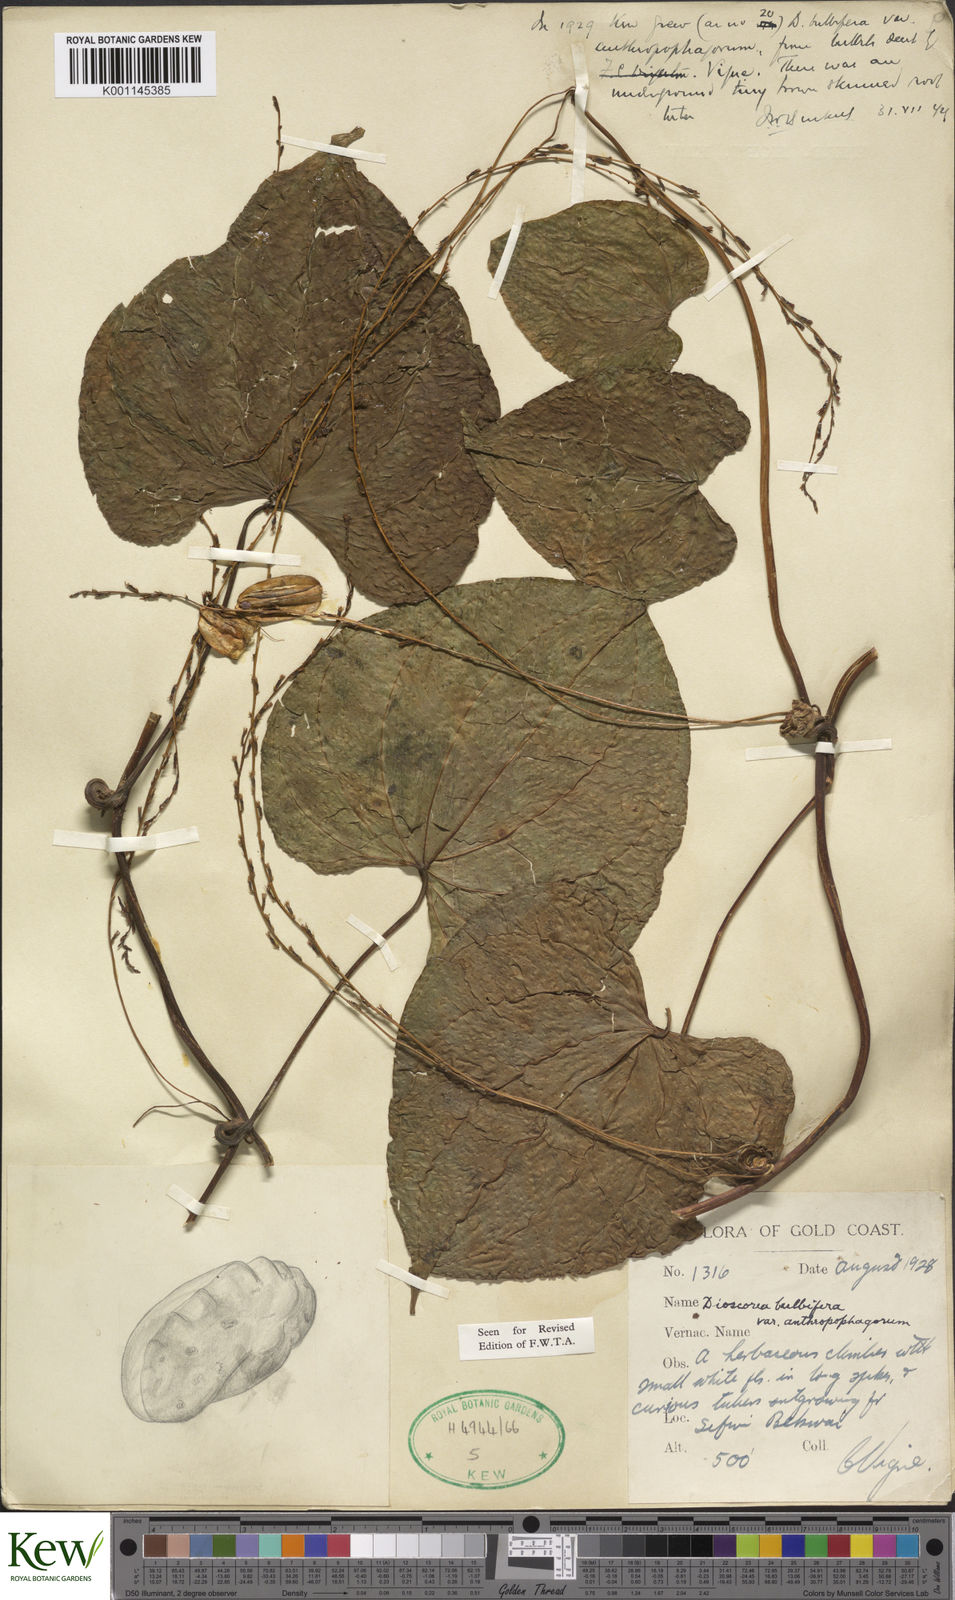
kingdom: Plantae
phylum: Tracheophyta
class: Liliopsida
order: Dioscoreales
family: Dioscoreaceae
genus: Dioscorea
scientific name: Dioscorea bulbifera
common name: Air yam
